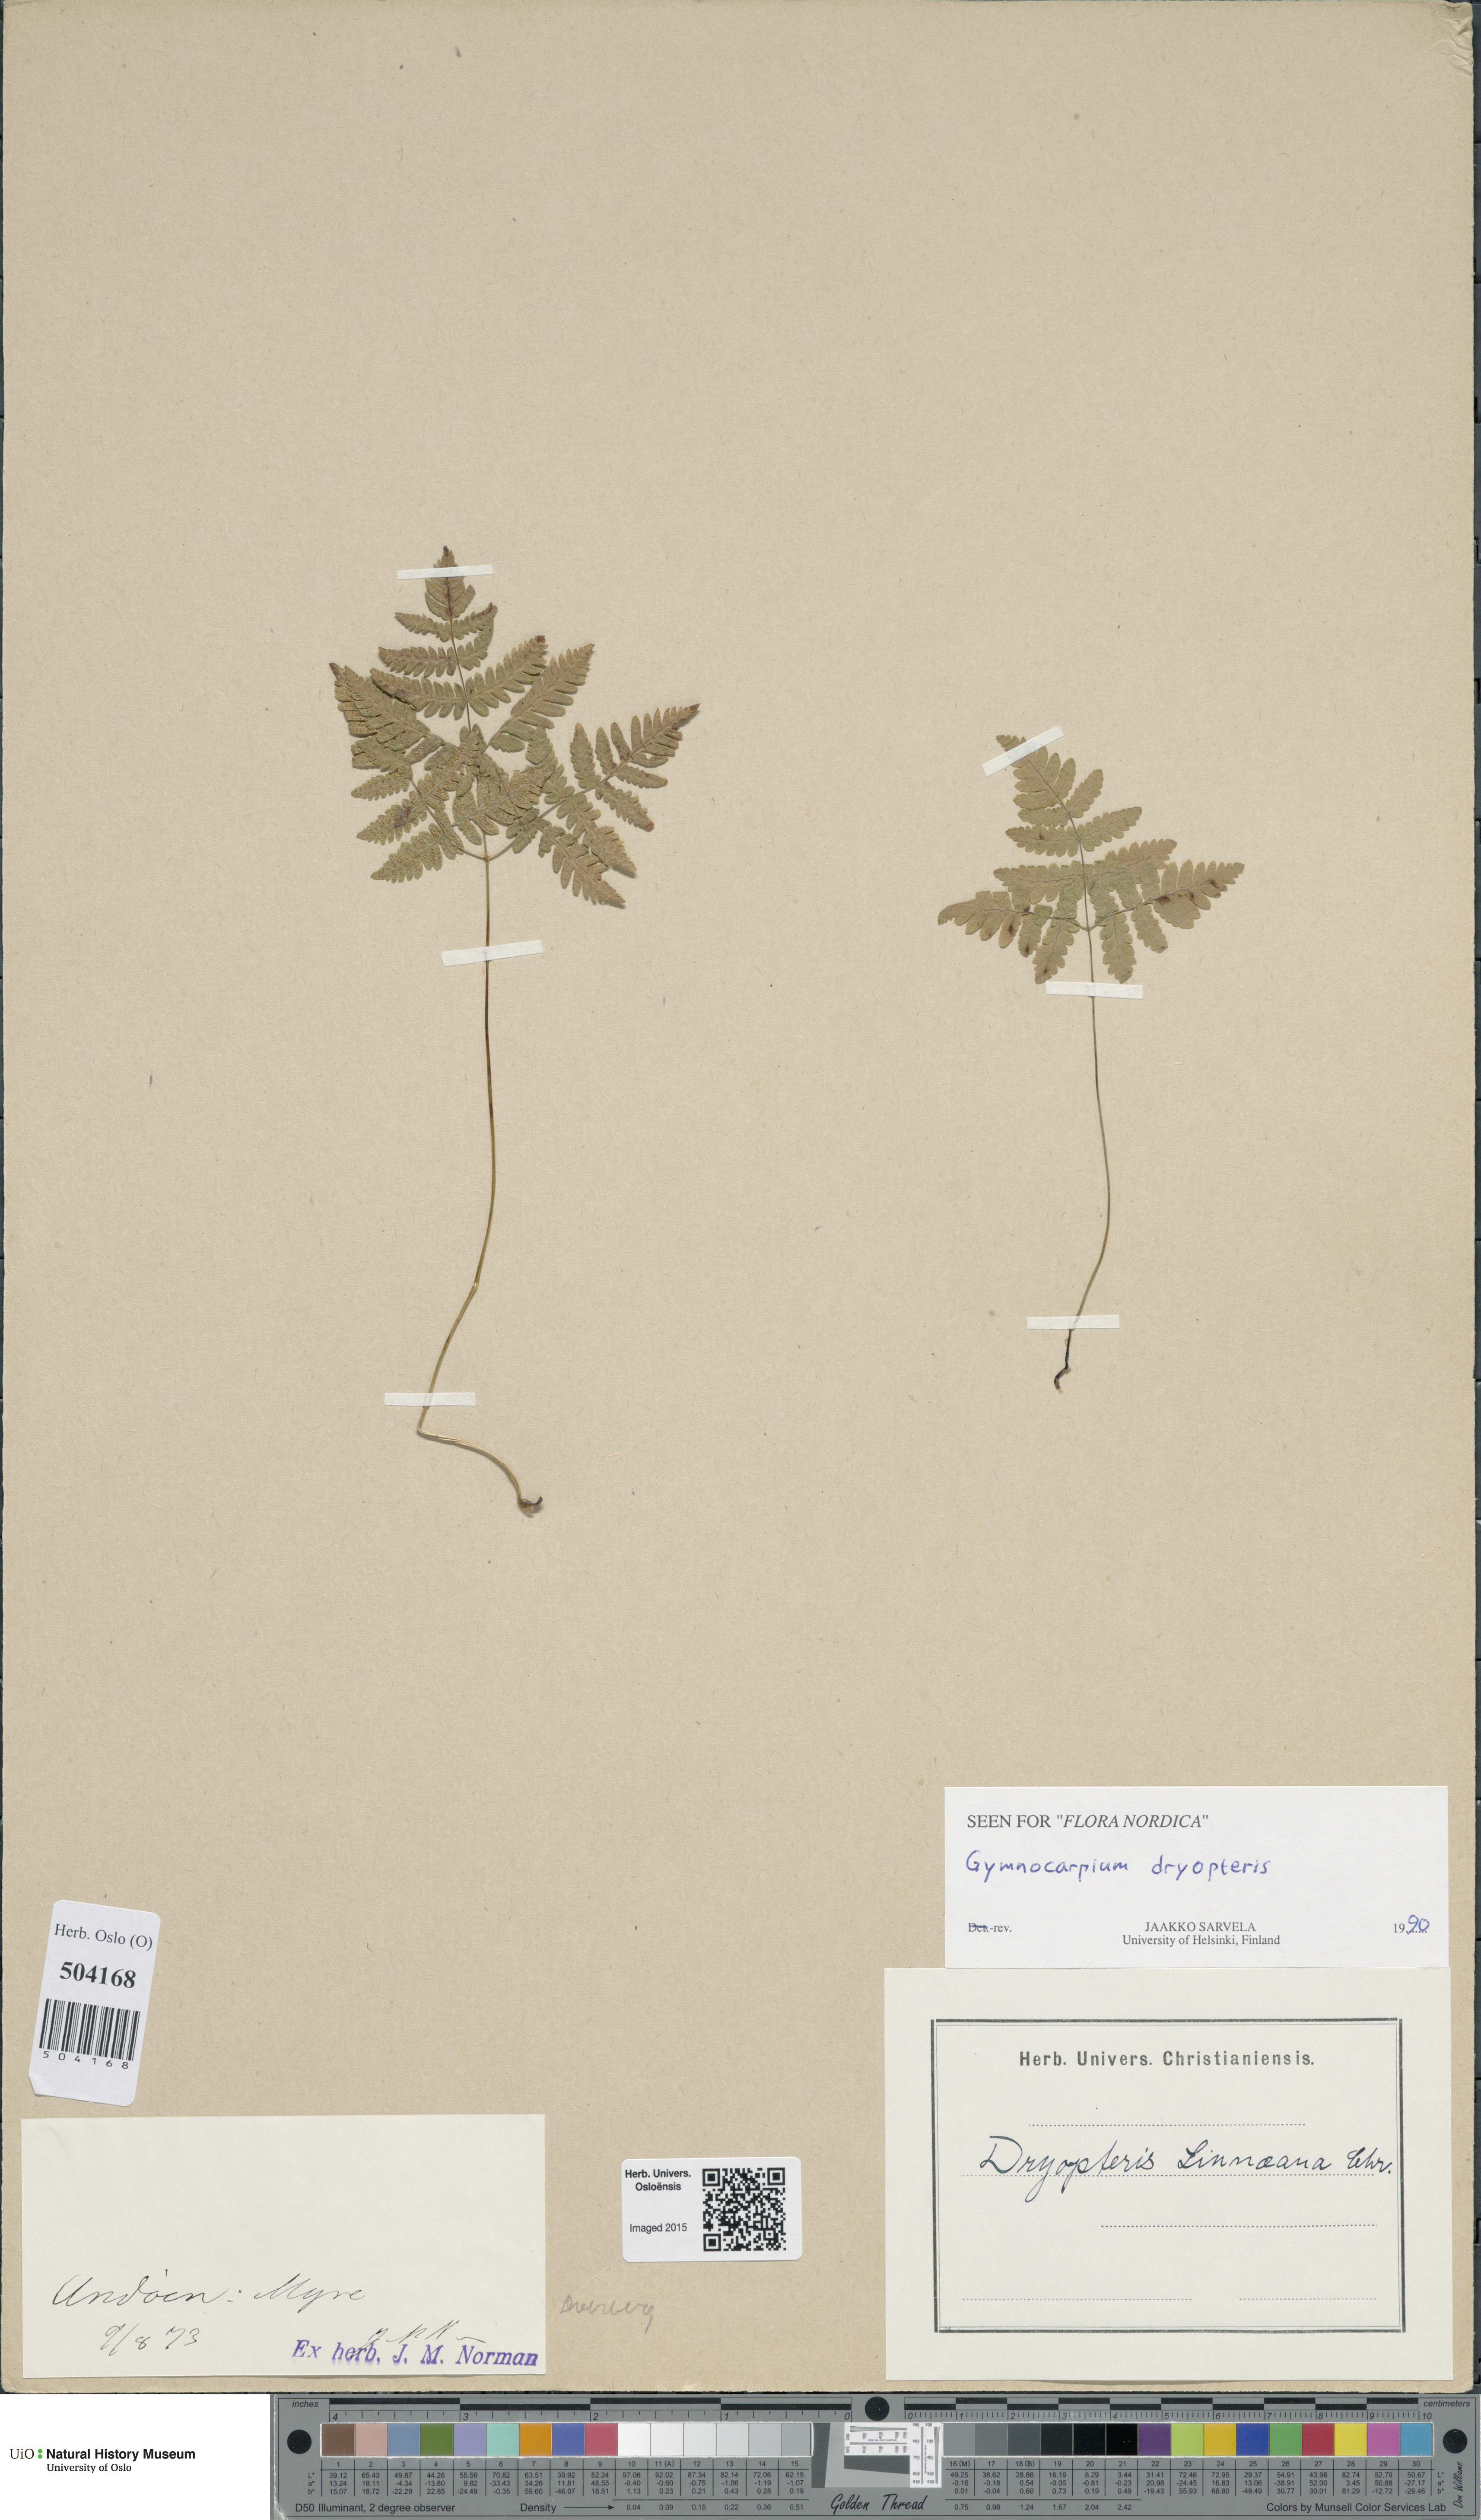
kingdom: Plantae
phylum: Tracheophyta
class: Polypodiopsida
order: Polypodiales
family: Cystopteridaceae
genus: Gymnocarpium
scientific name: Gymnocarpium dryopteris
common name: Oak fern
